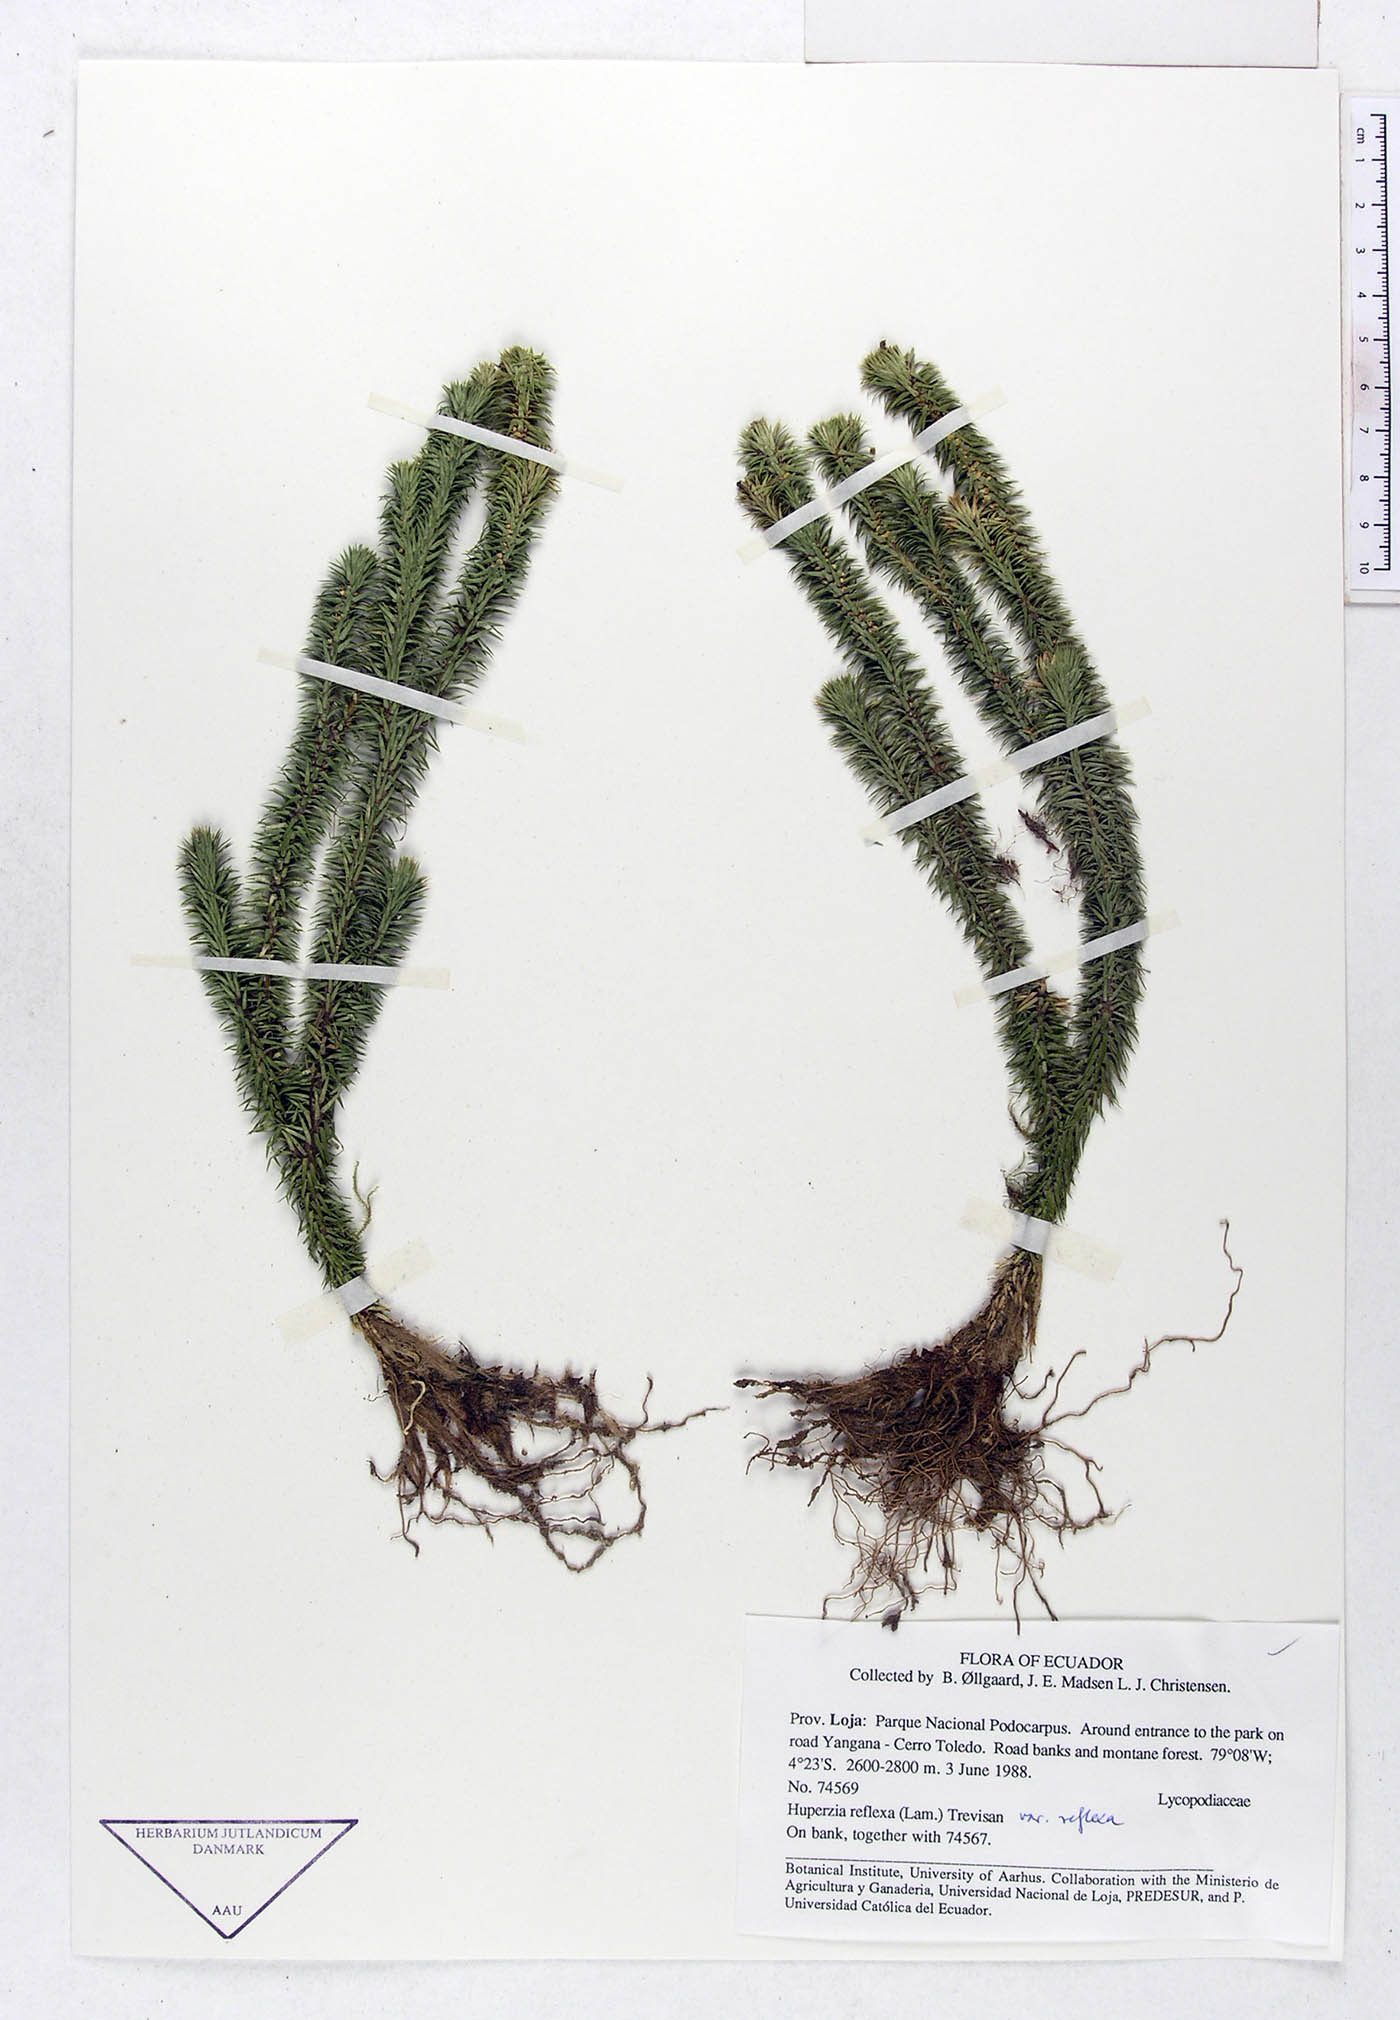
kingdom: Plantae
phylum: Tracheophyta
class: Lycopodiopsida
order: Lycopodiales
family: Lycopodiaceae
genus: Phlegmariurus
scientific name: Phlegmariurus reflexus
